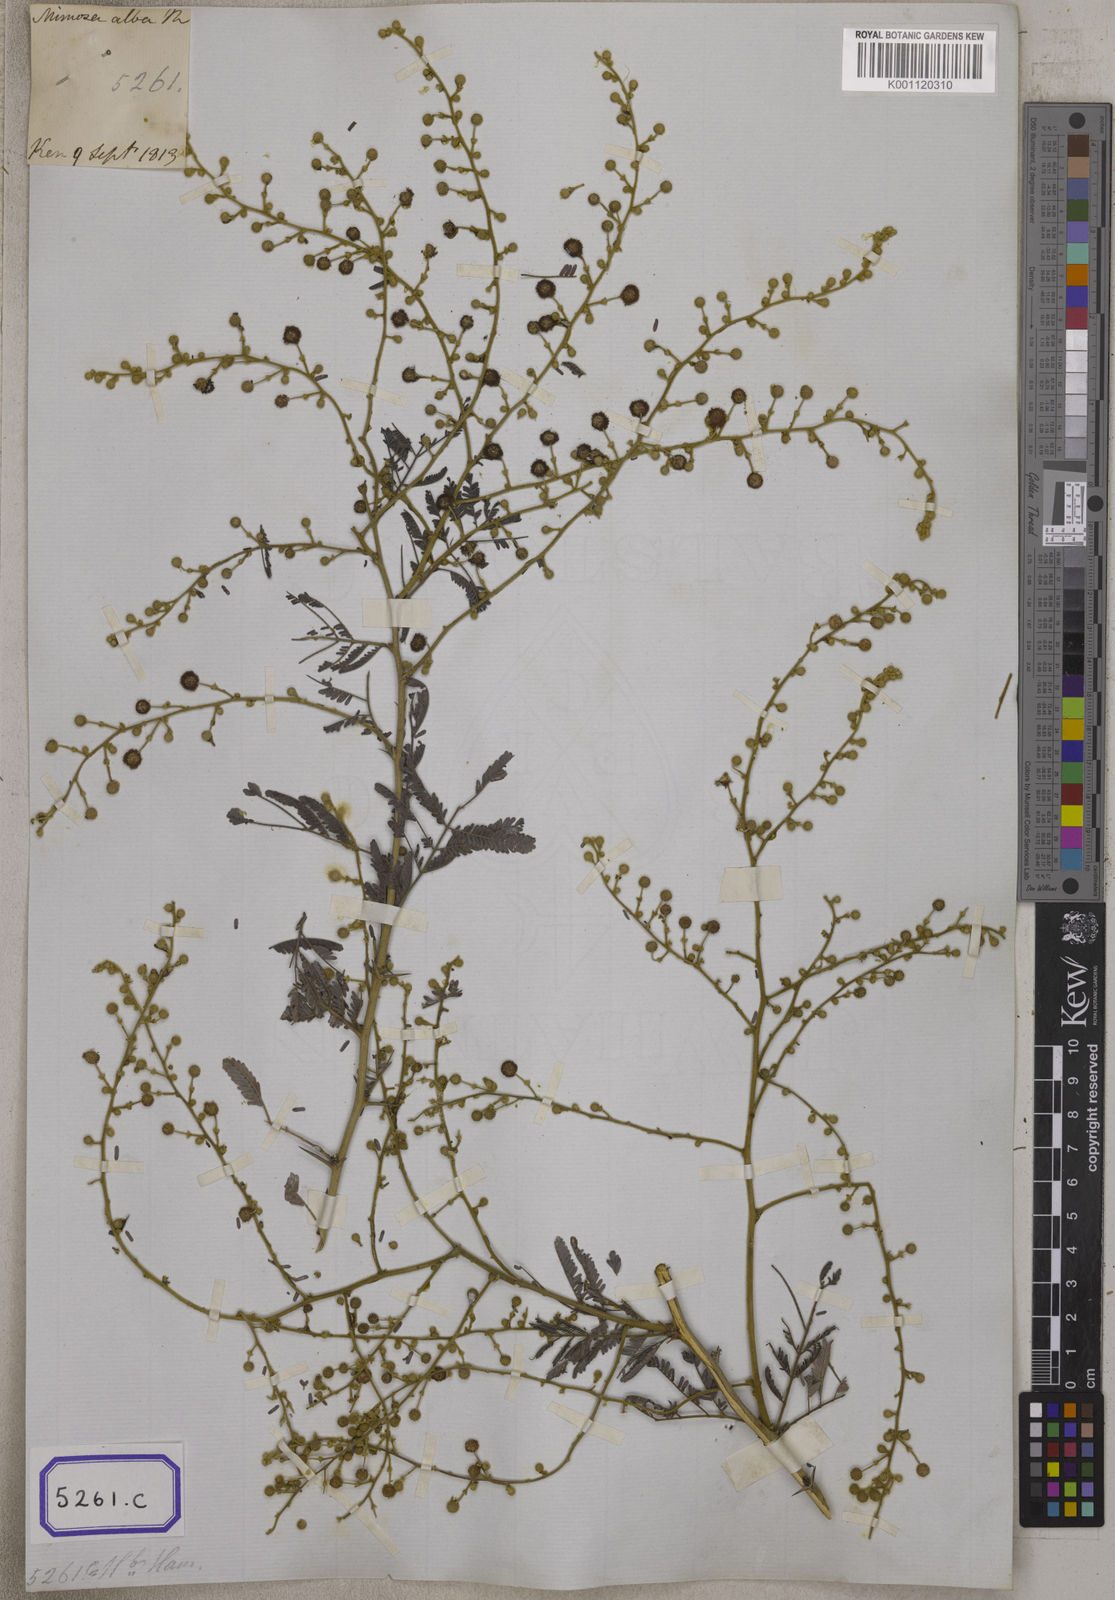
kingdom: Plantae
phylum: Tracheophyta
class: Magnoliopsida
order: Fabales
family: Fabaceae
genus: Vachellia
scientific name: Vachellia leucophloea
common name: Distiller's acacia
